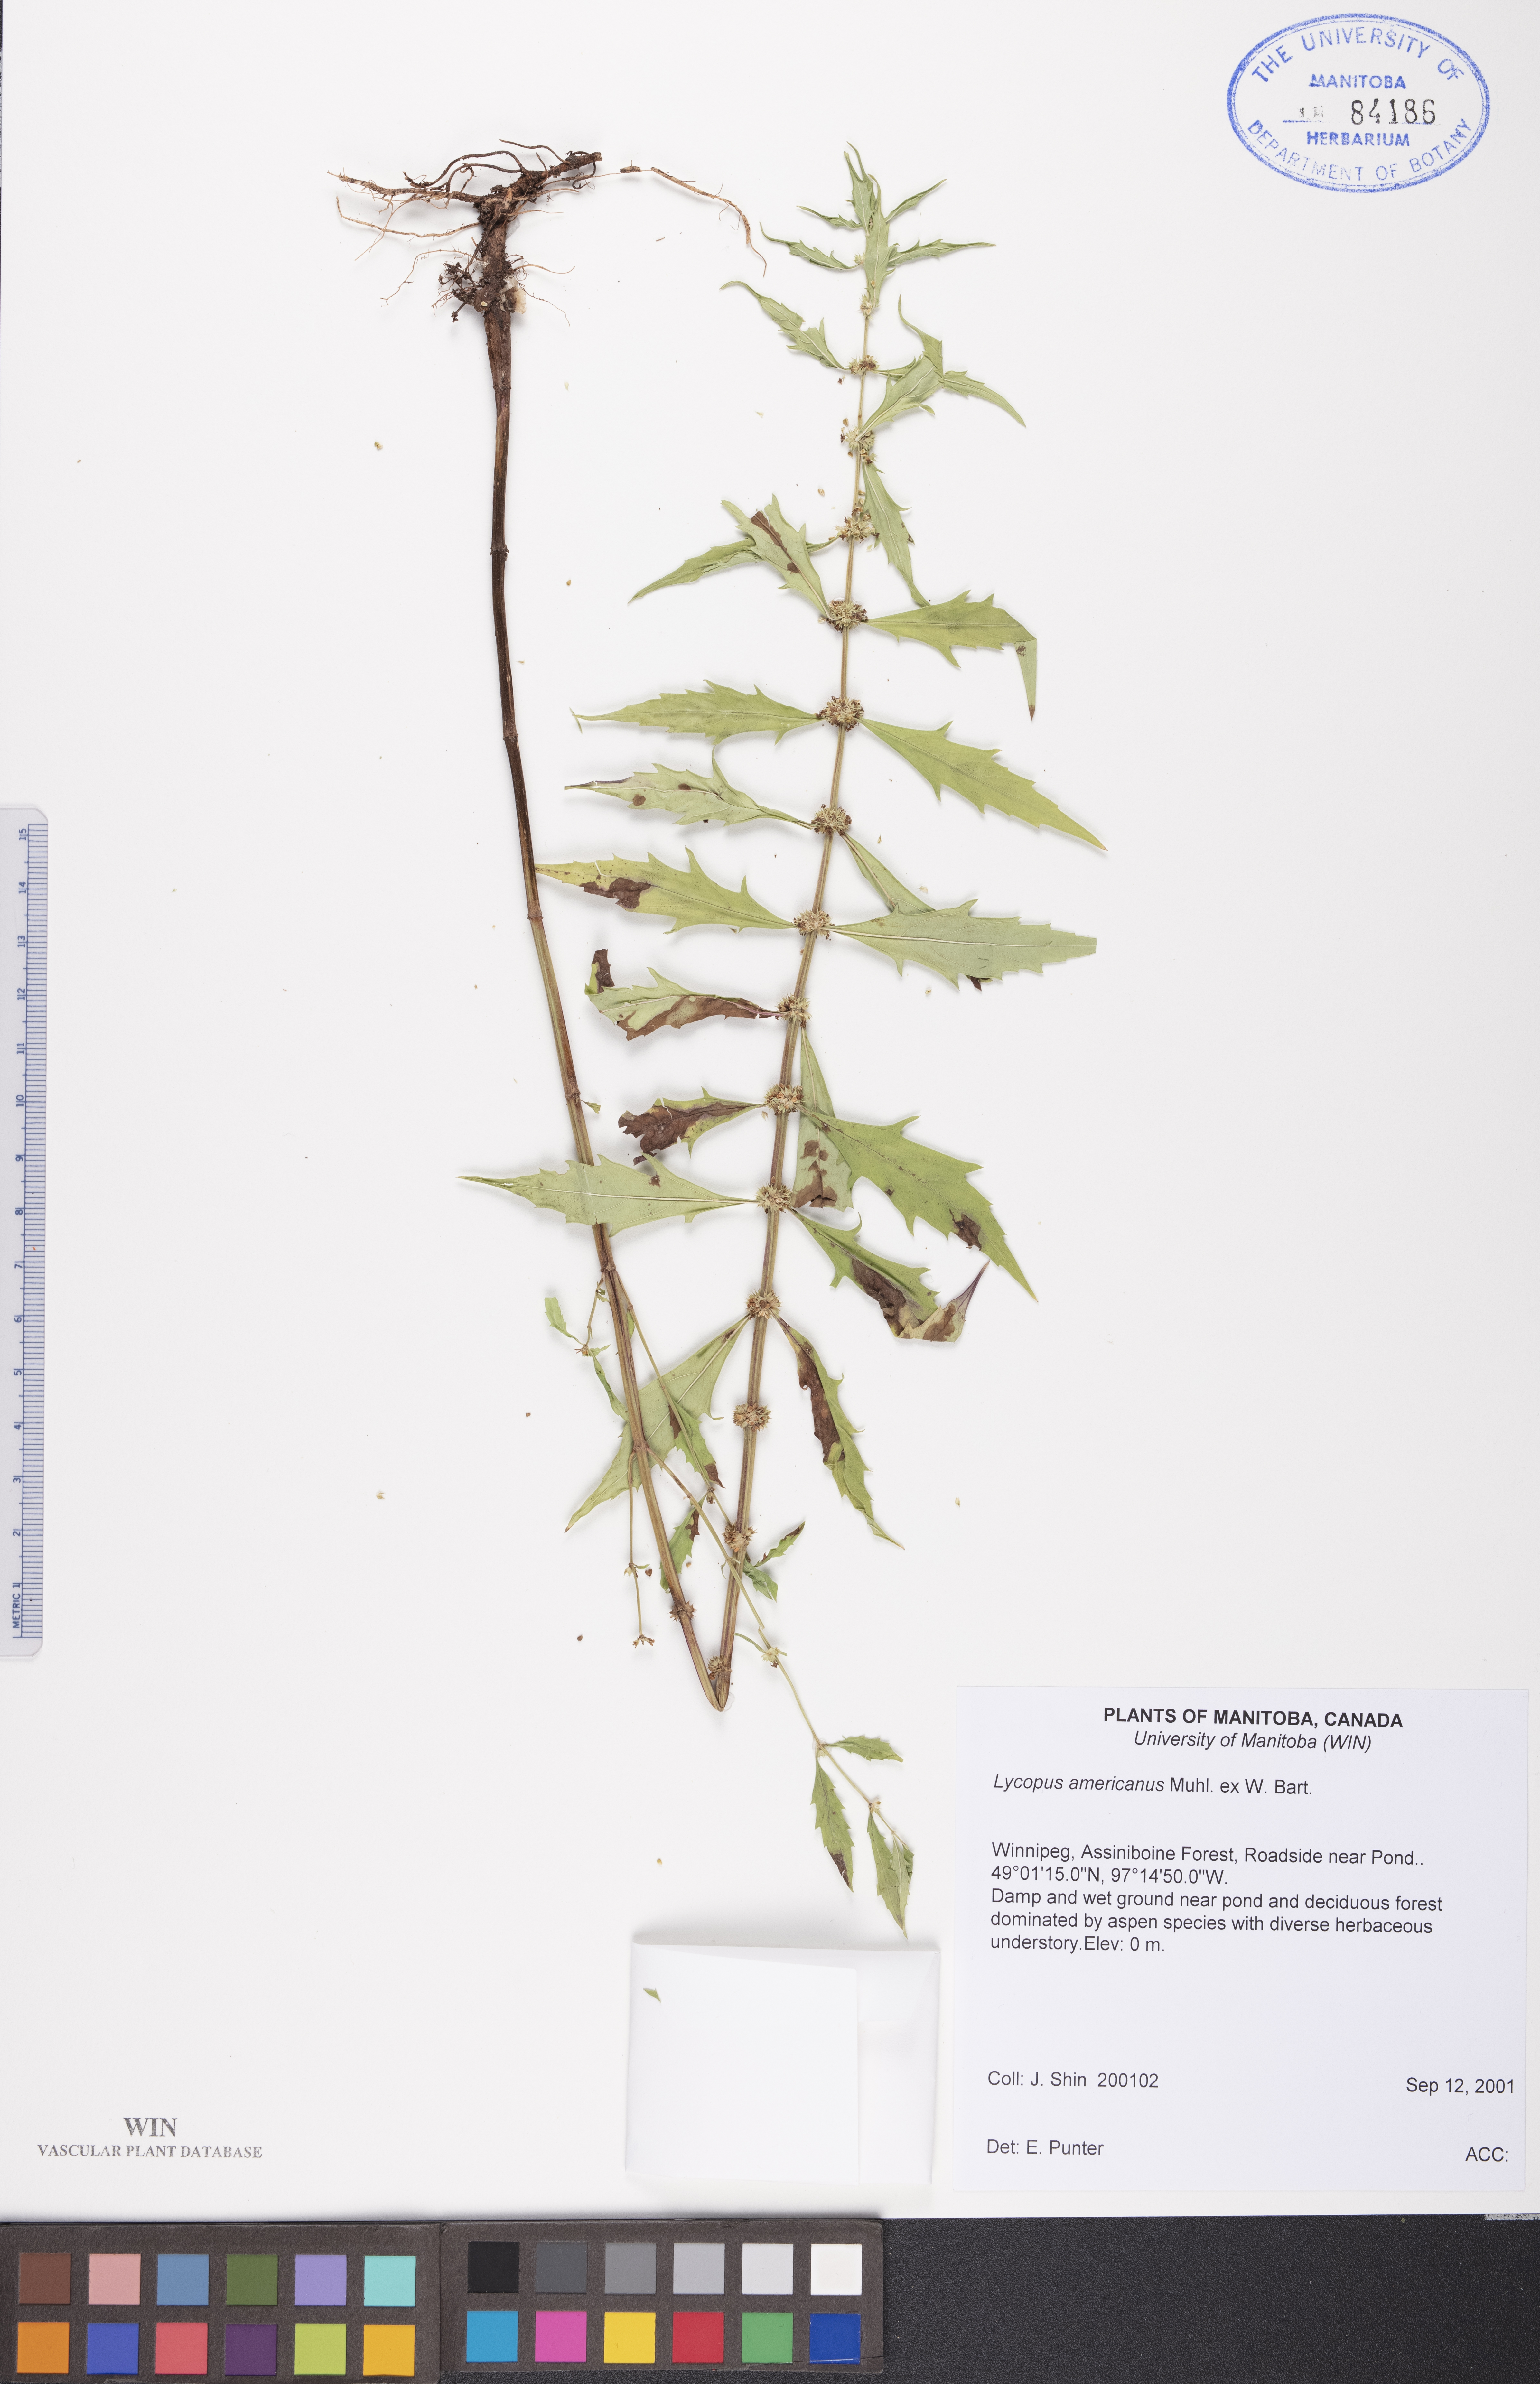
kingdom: Plantae
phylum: Tracheophyta
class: Magnoliopsida
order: Lamiales
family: Lamiaceae
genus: Lycopus
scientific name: Lycopus americanus
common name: American bugleweed
